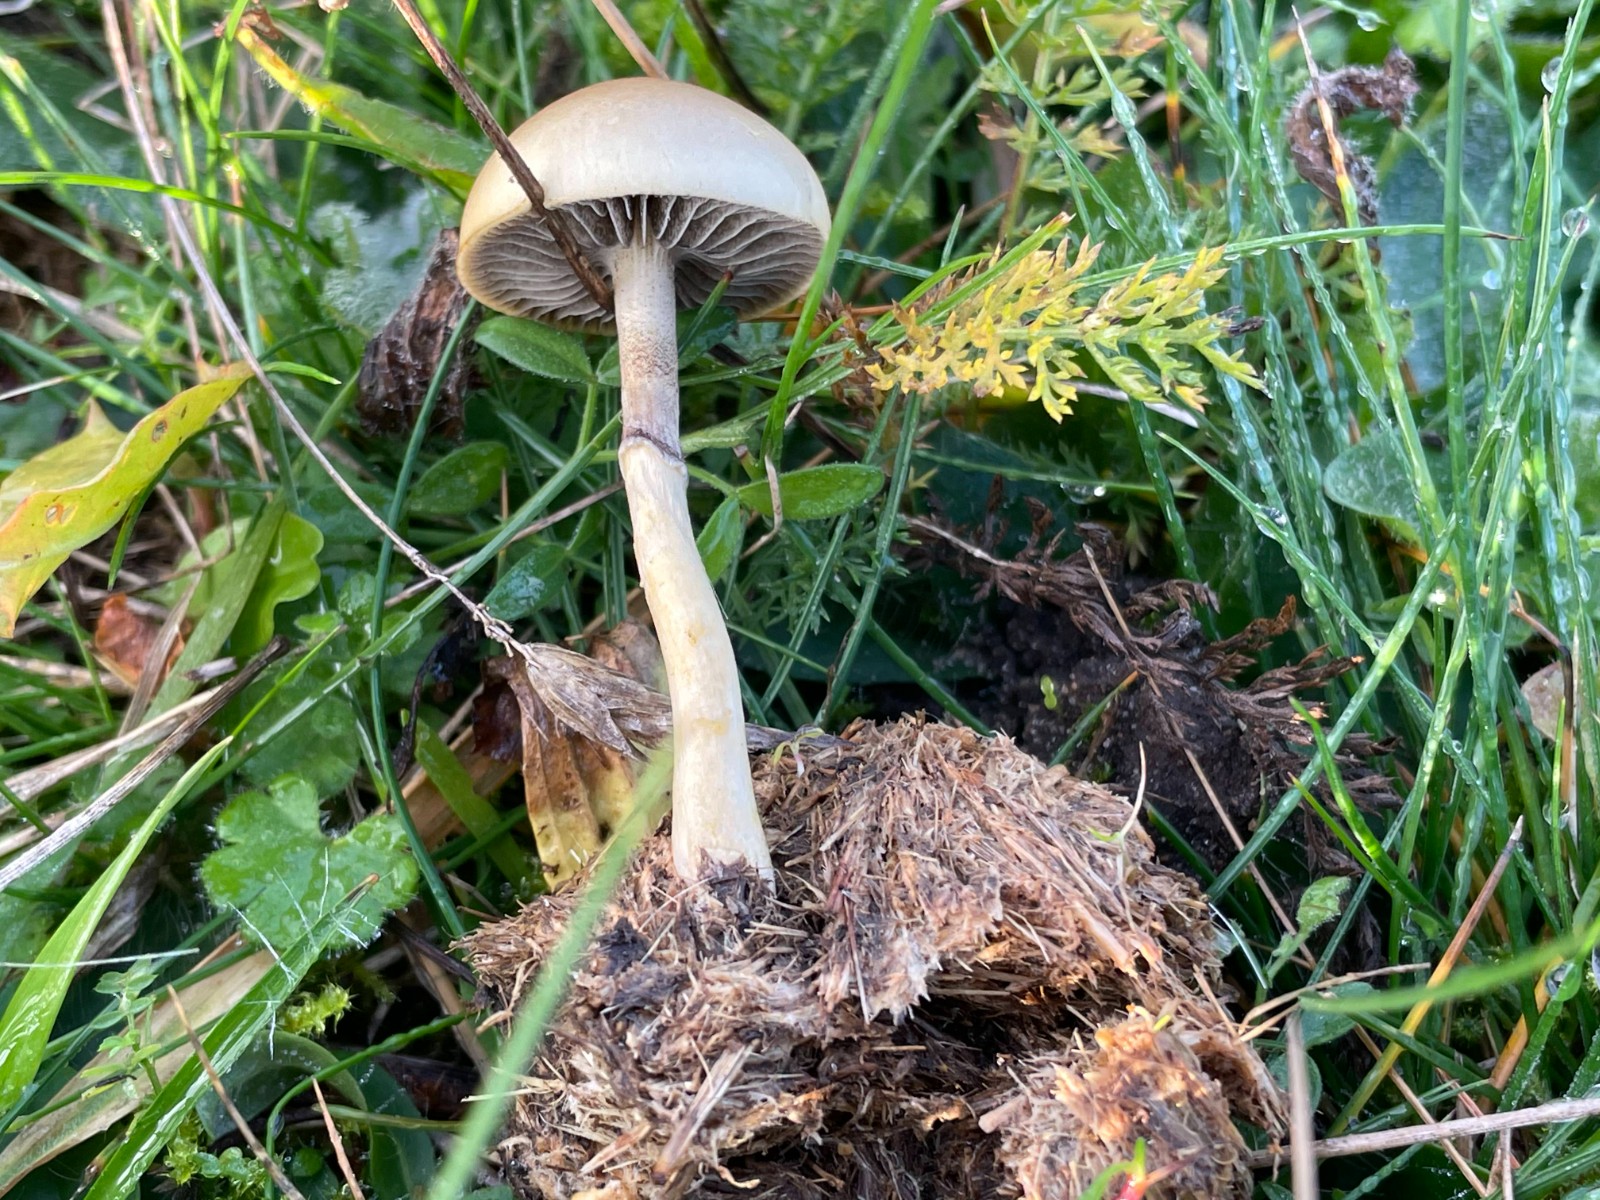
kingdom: Fungi
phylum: Basidiomycota
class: Agaricomycetes
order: Agaricales
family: Strophariaceae
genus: Protostropharia
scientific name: Protostropharia semiglobata
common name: halvkugleformet bredblad
